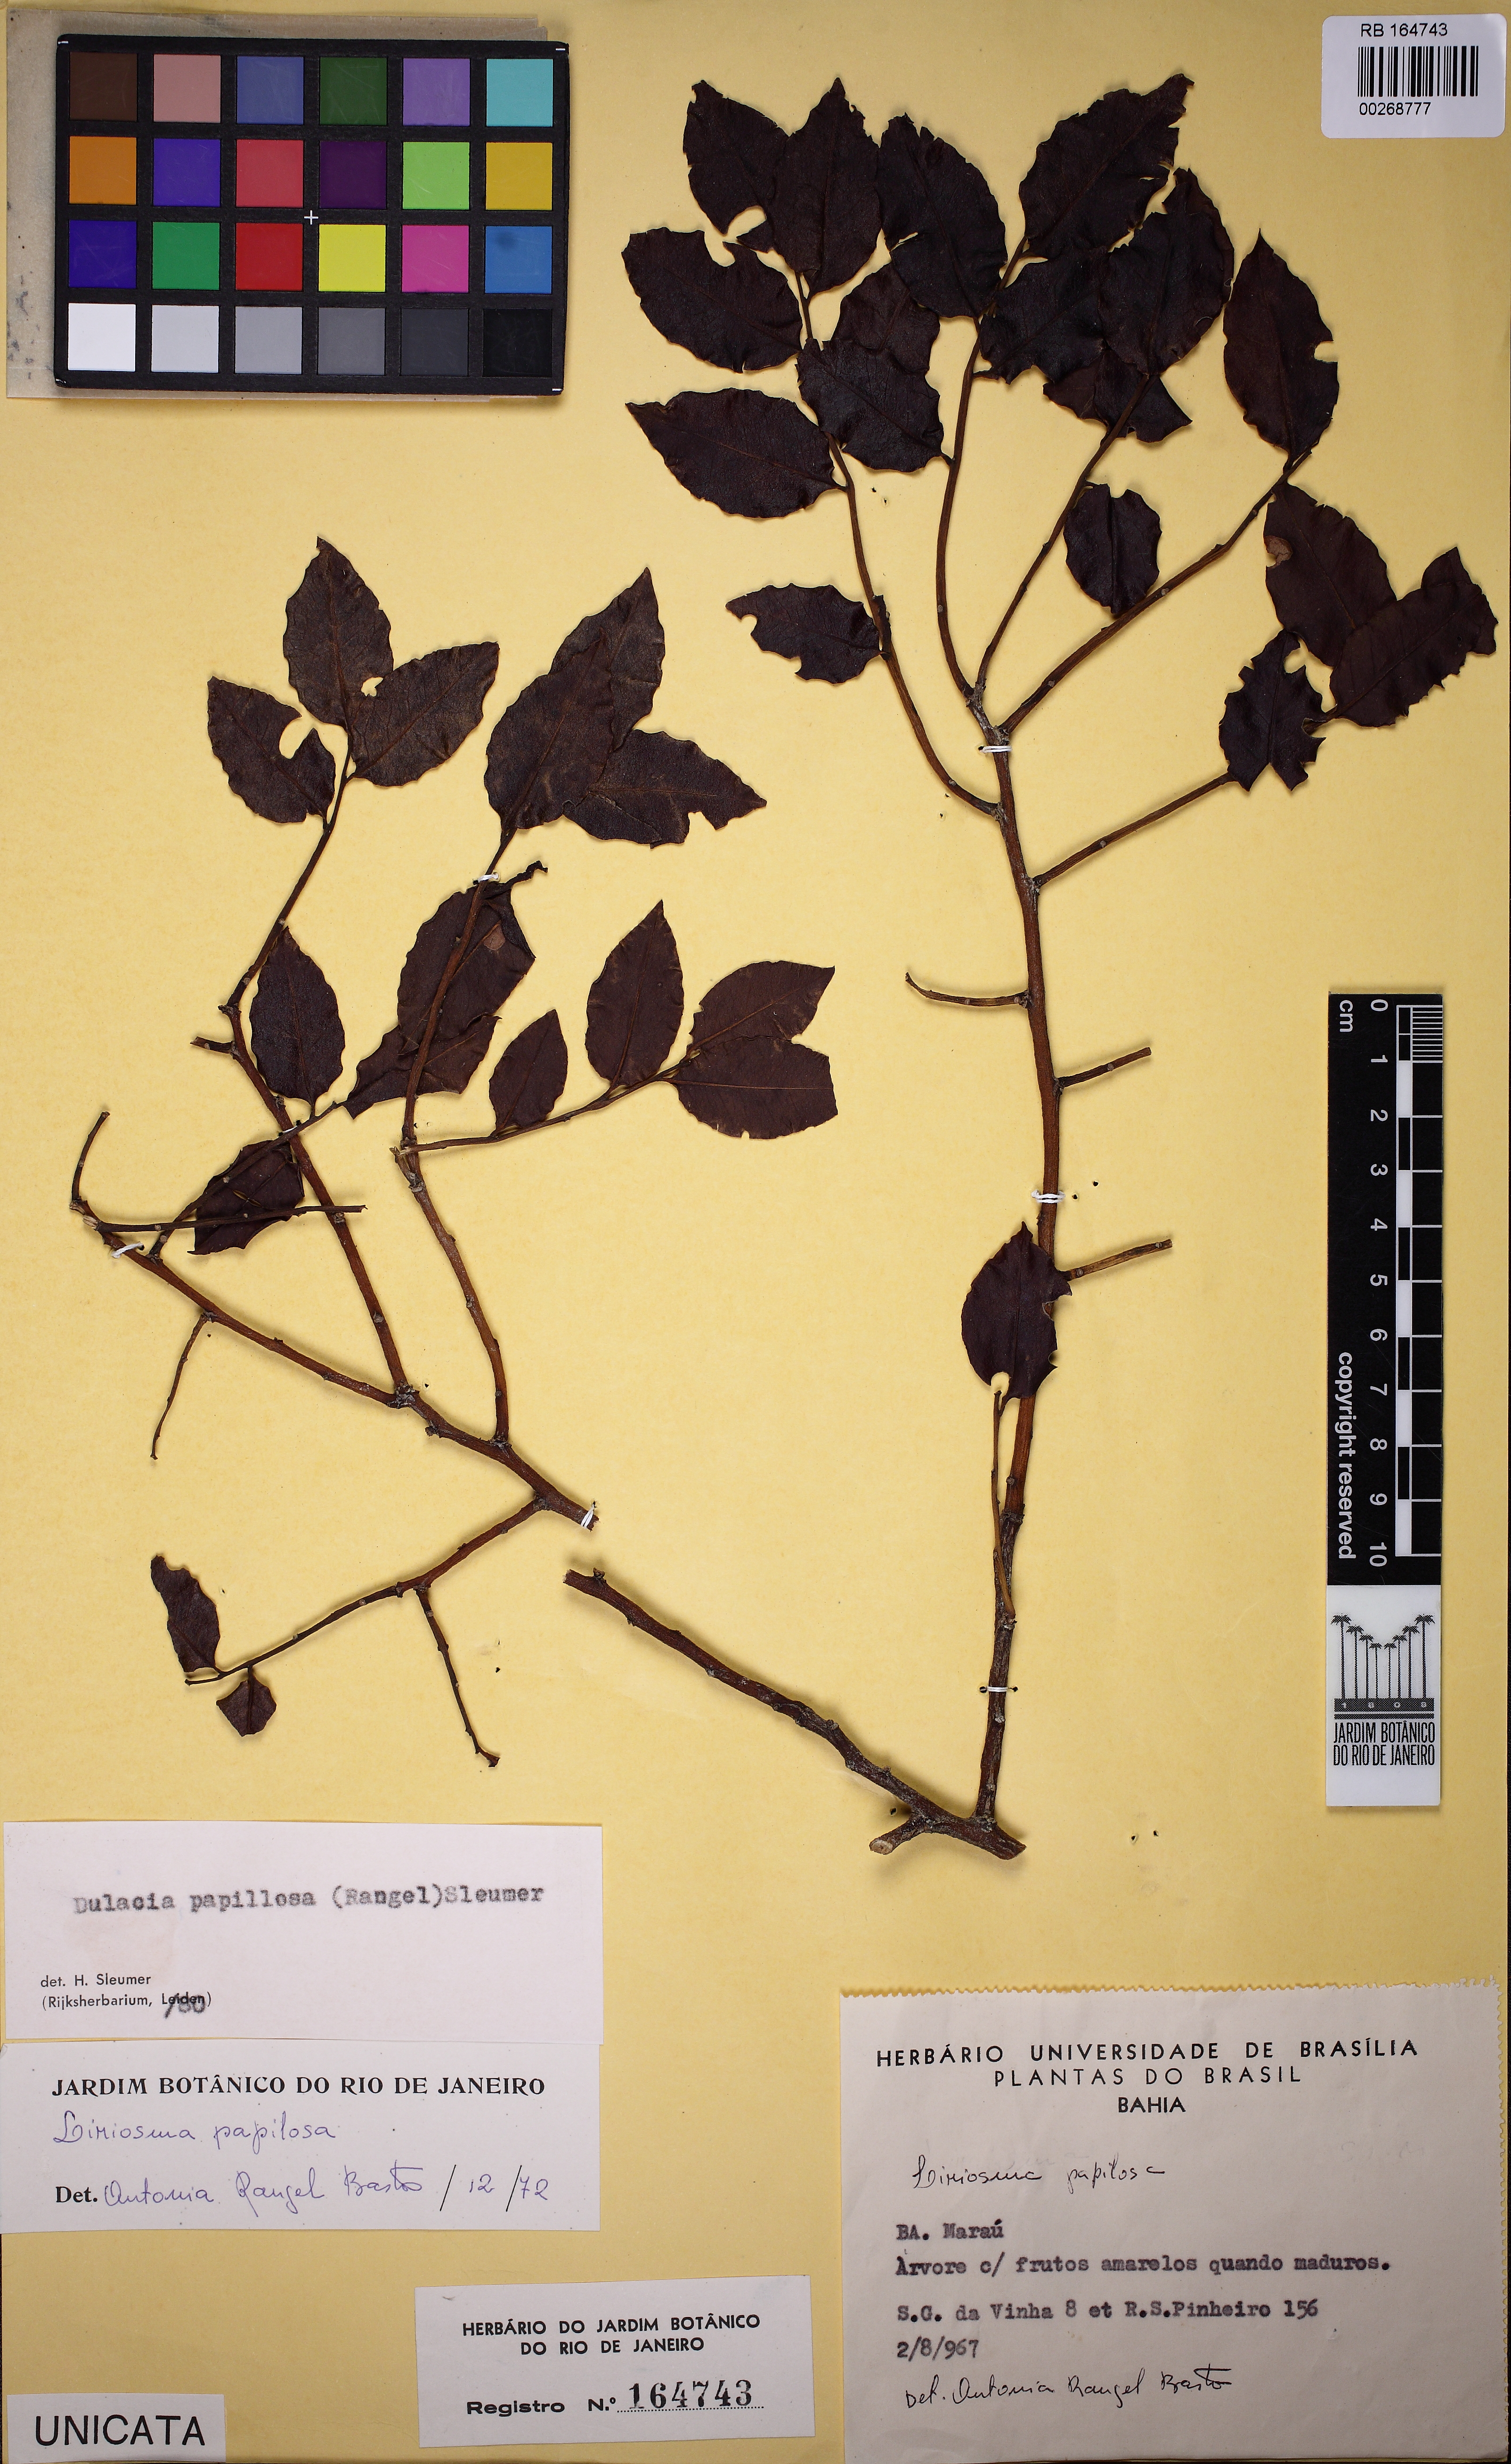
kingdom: Plantae
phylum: Tracheophyta
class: Magnoliopsida
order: Santalales
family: Olacaceae
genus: Dulacia
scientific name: Dulacia papillosa
